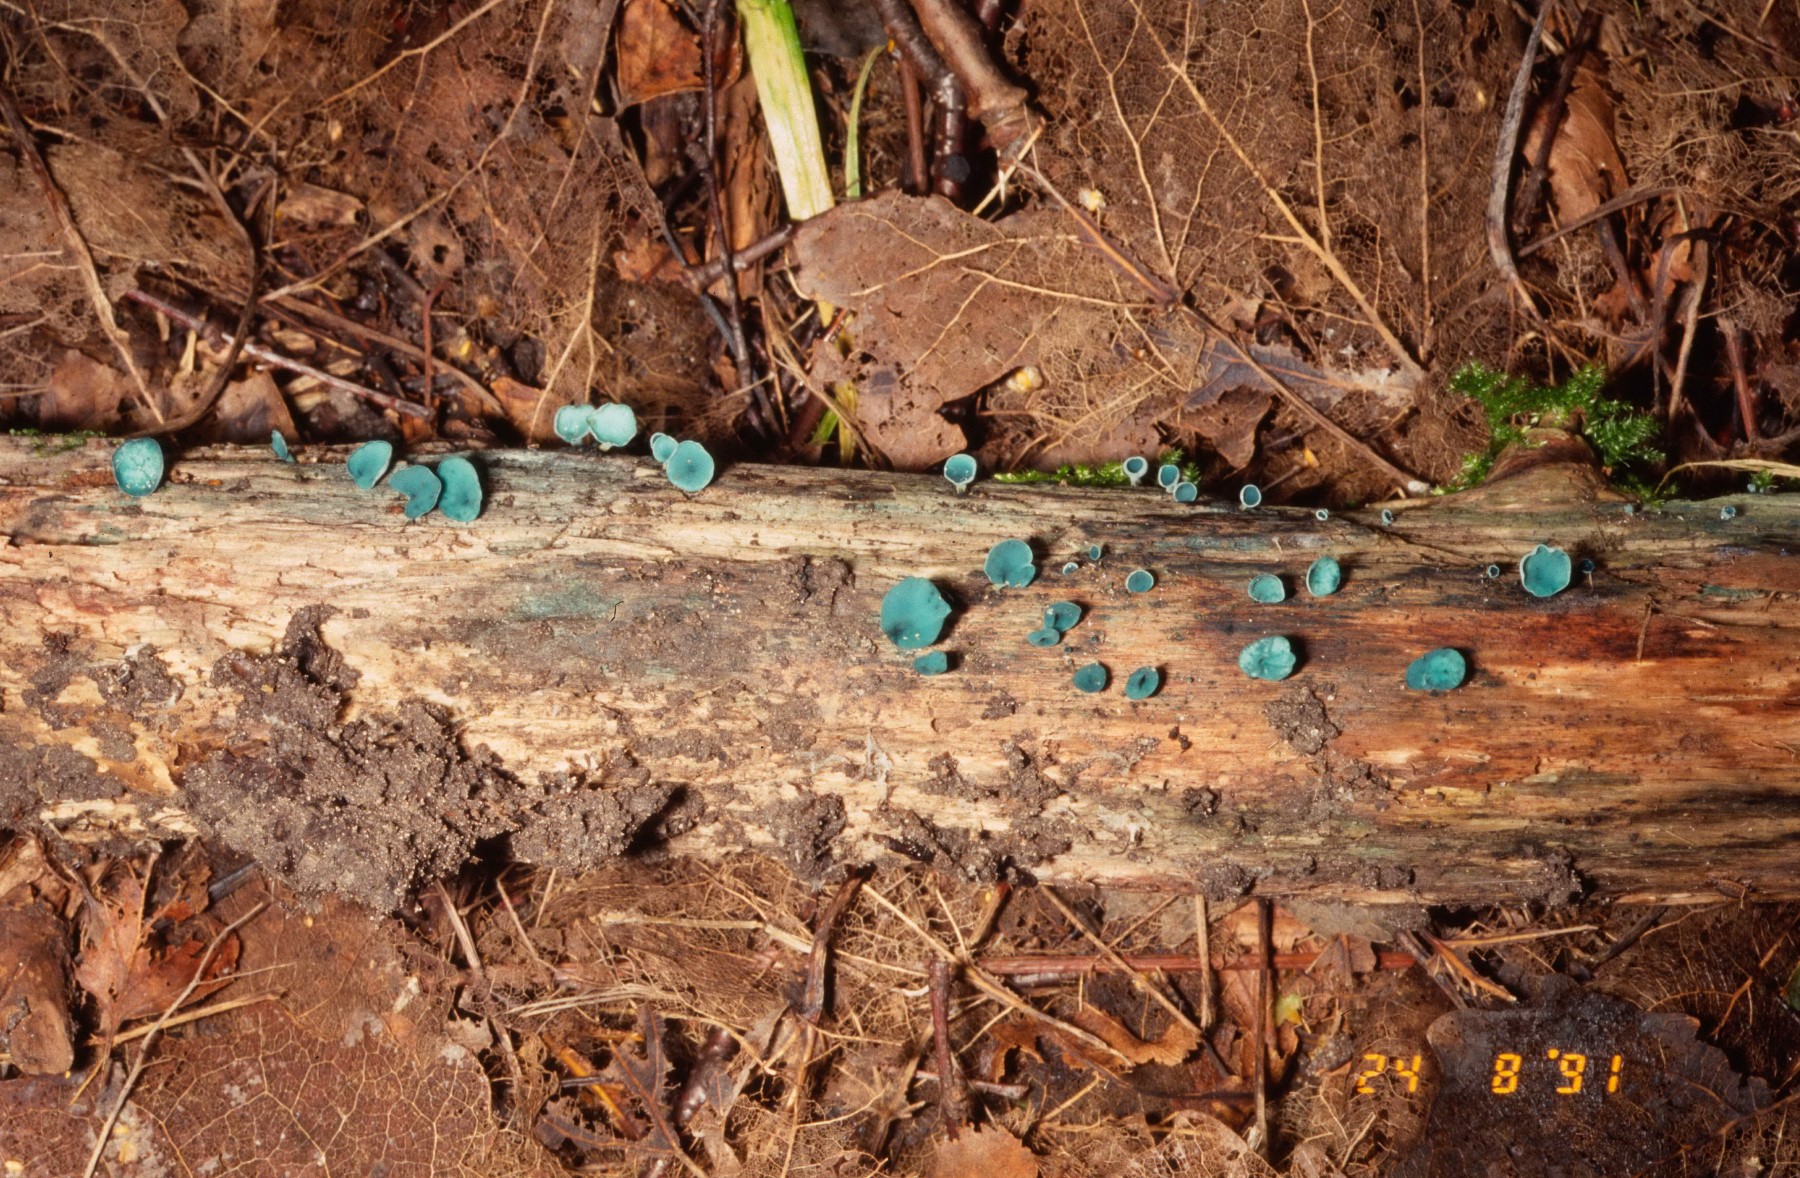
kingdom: Fungi
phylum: Ascomycota
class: Leotiomycetes
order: Helotiales
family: Chlorociboriaceae
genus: Chlorociboria
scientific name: Chlorociboria aeruginascens
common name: almindelig grønskive
